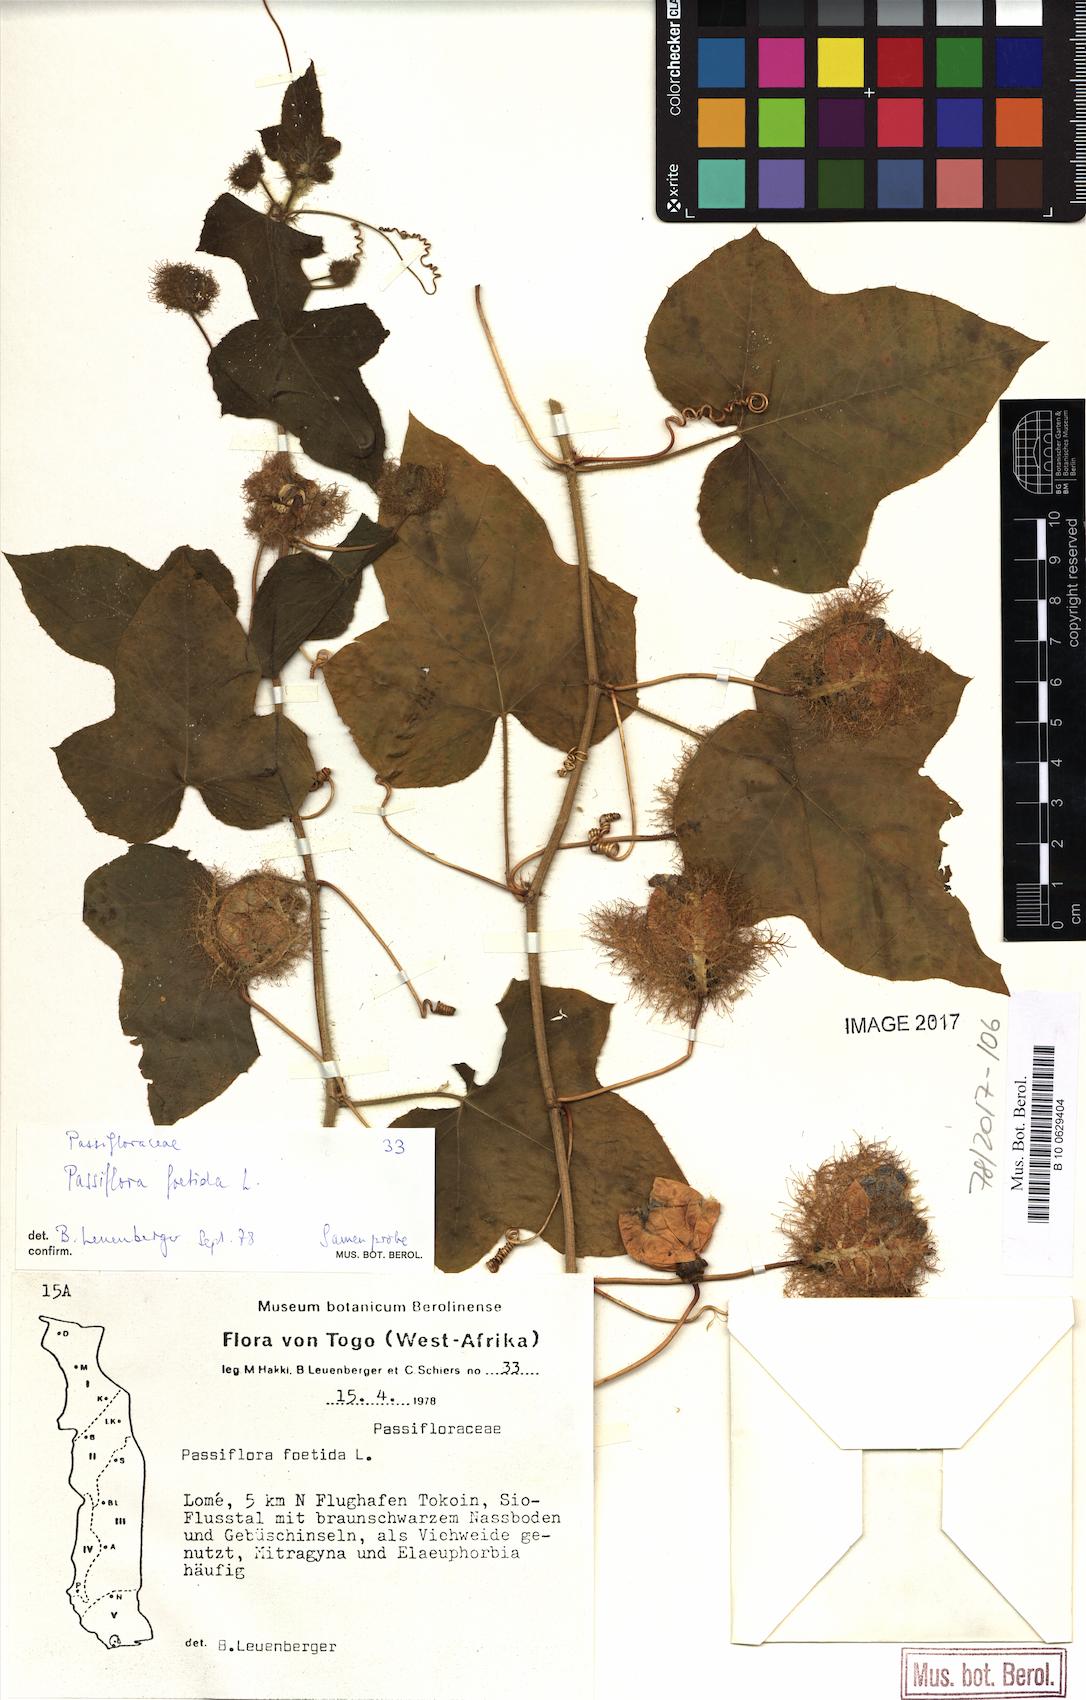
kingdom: Plantae
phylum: Tracheophyta
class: Magnoliopsida
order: Malpighiales
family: Passifloraceae
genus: Passiflora
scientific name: Passiflora foetida
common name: Fetid passionflower
